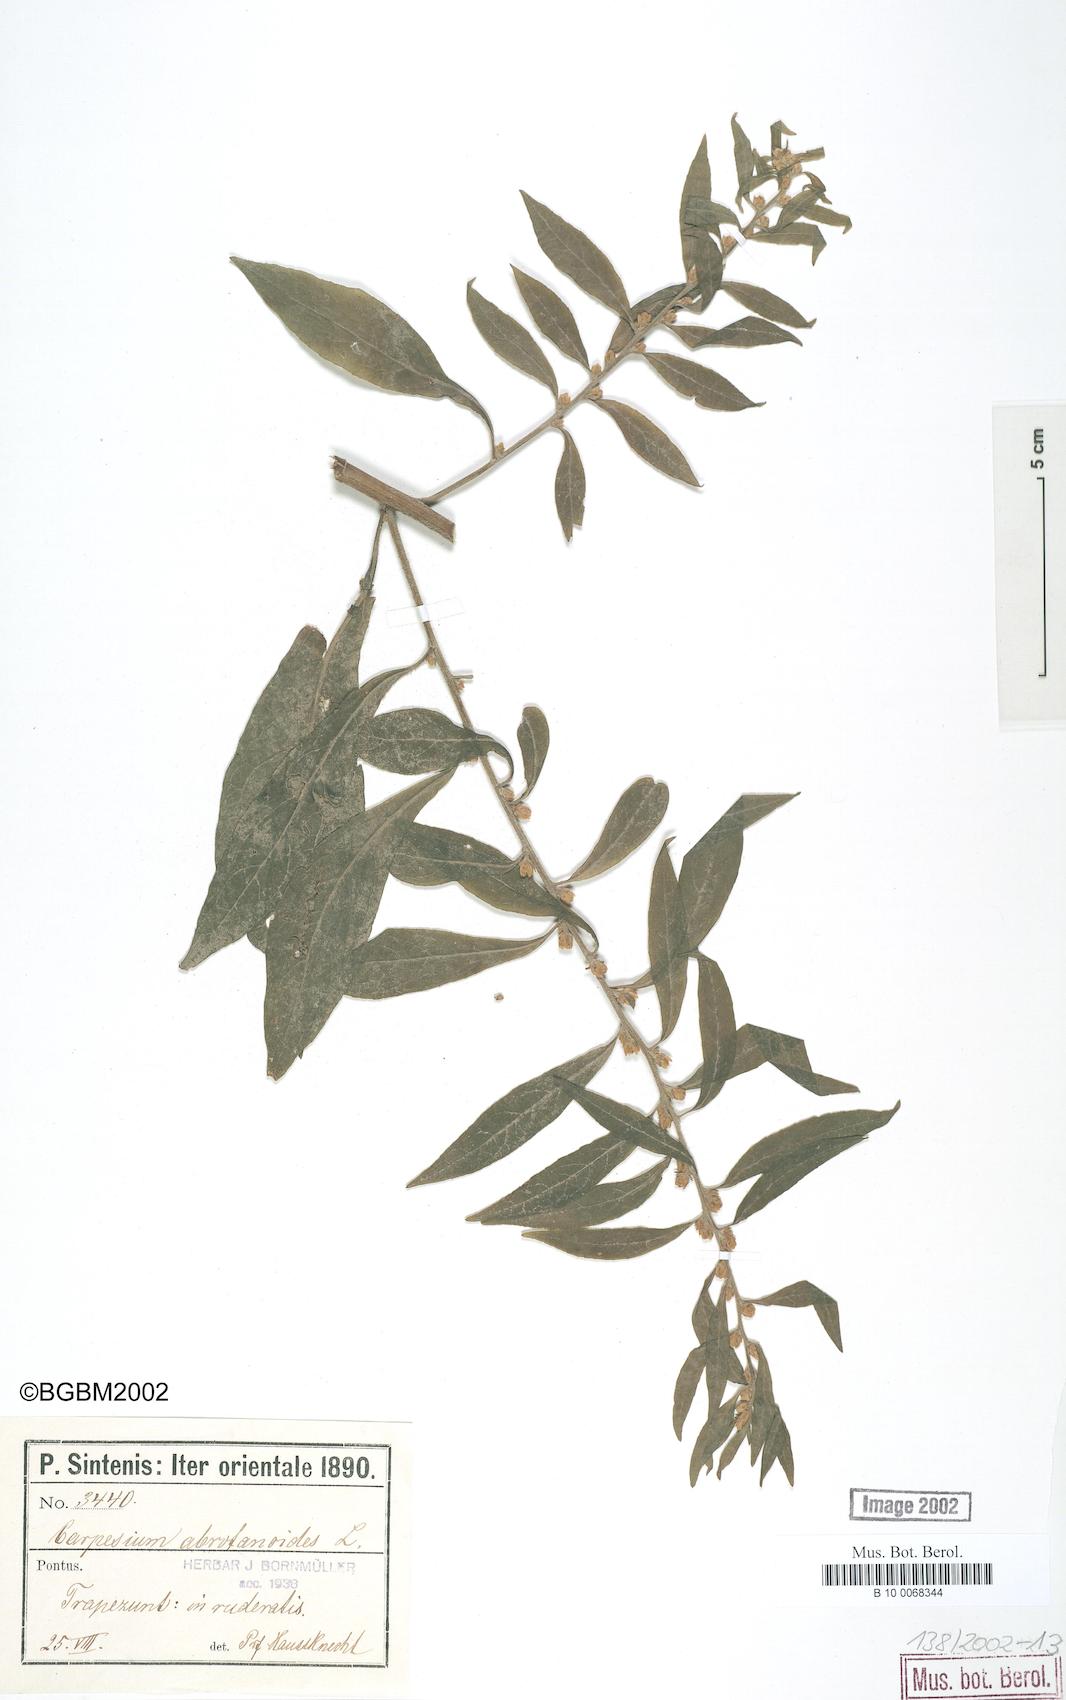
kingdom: Plantae
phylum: Tracheophyta
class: Magnoliopsida
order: Asterales
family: Asteraceae
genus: Carpesium
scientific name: Carpesium abrotanoides
